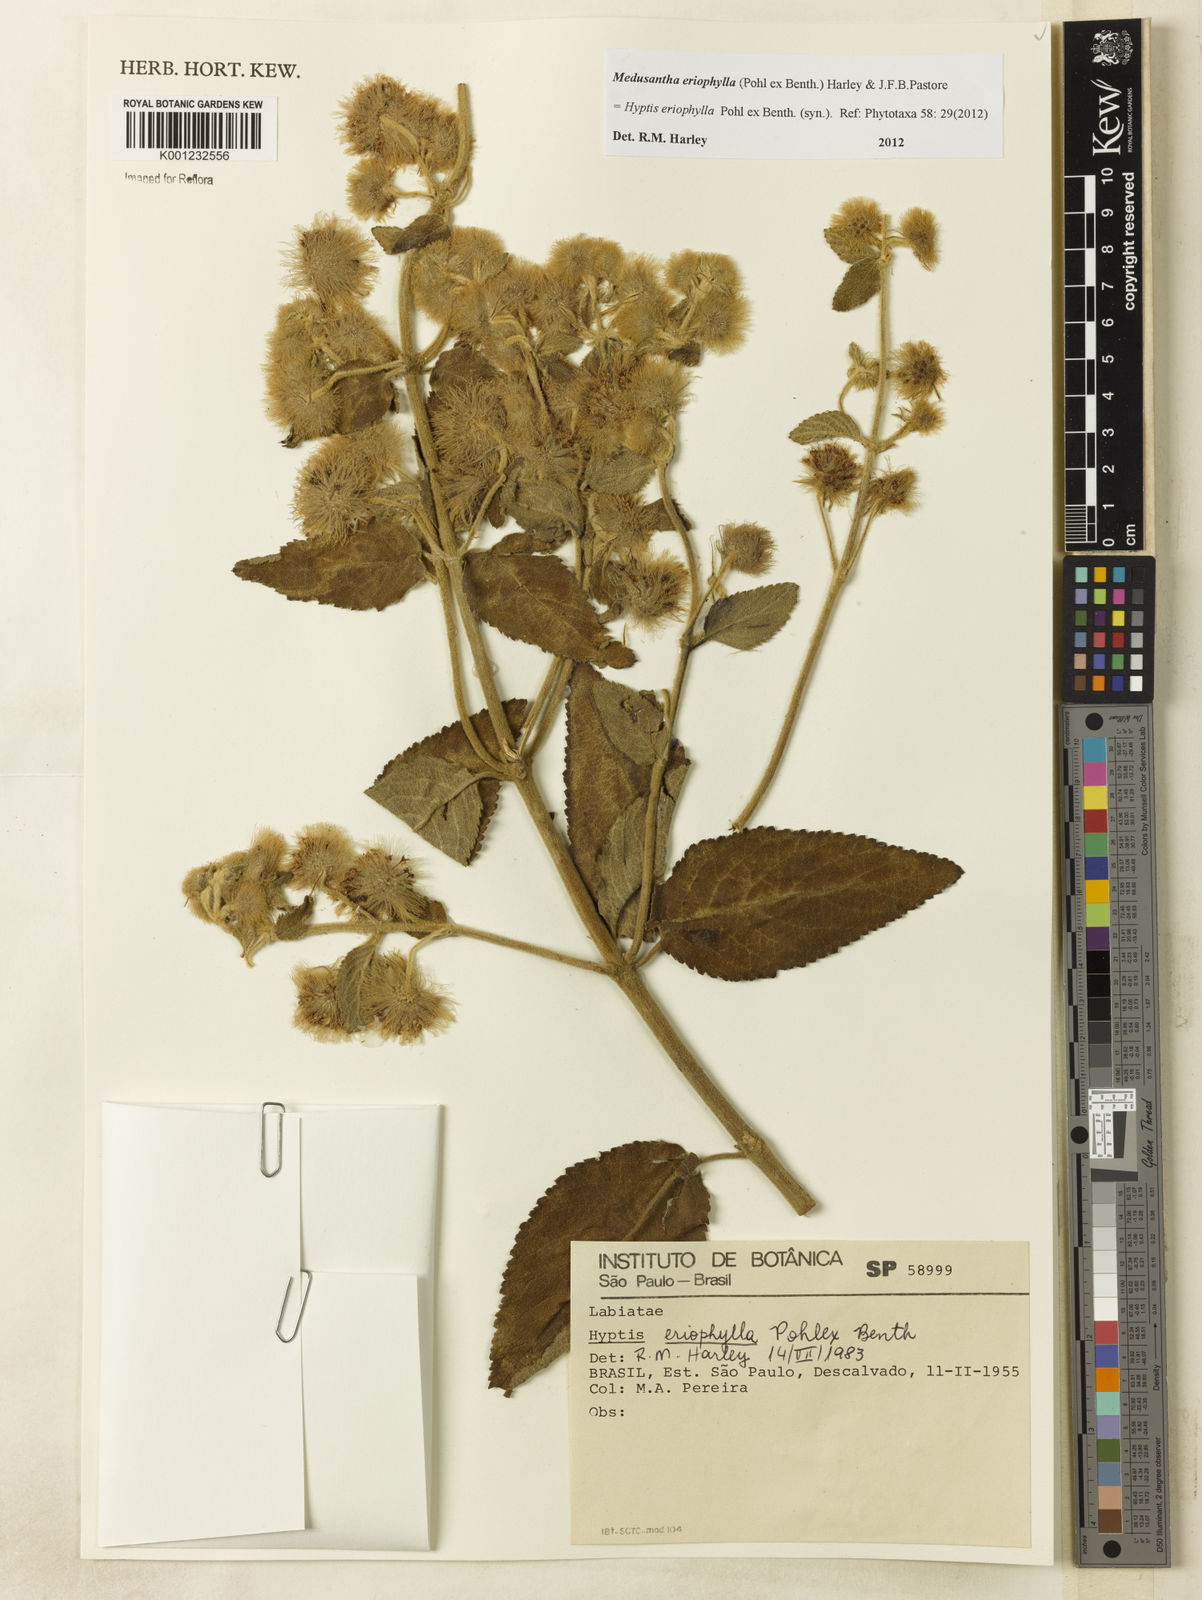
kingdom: Plantae
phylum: Tracheophyta
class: Magnoliopsida
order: Lamiales
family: Lamiaceae
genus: Medusantha
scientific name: Medusantha eriophylla
